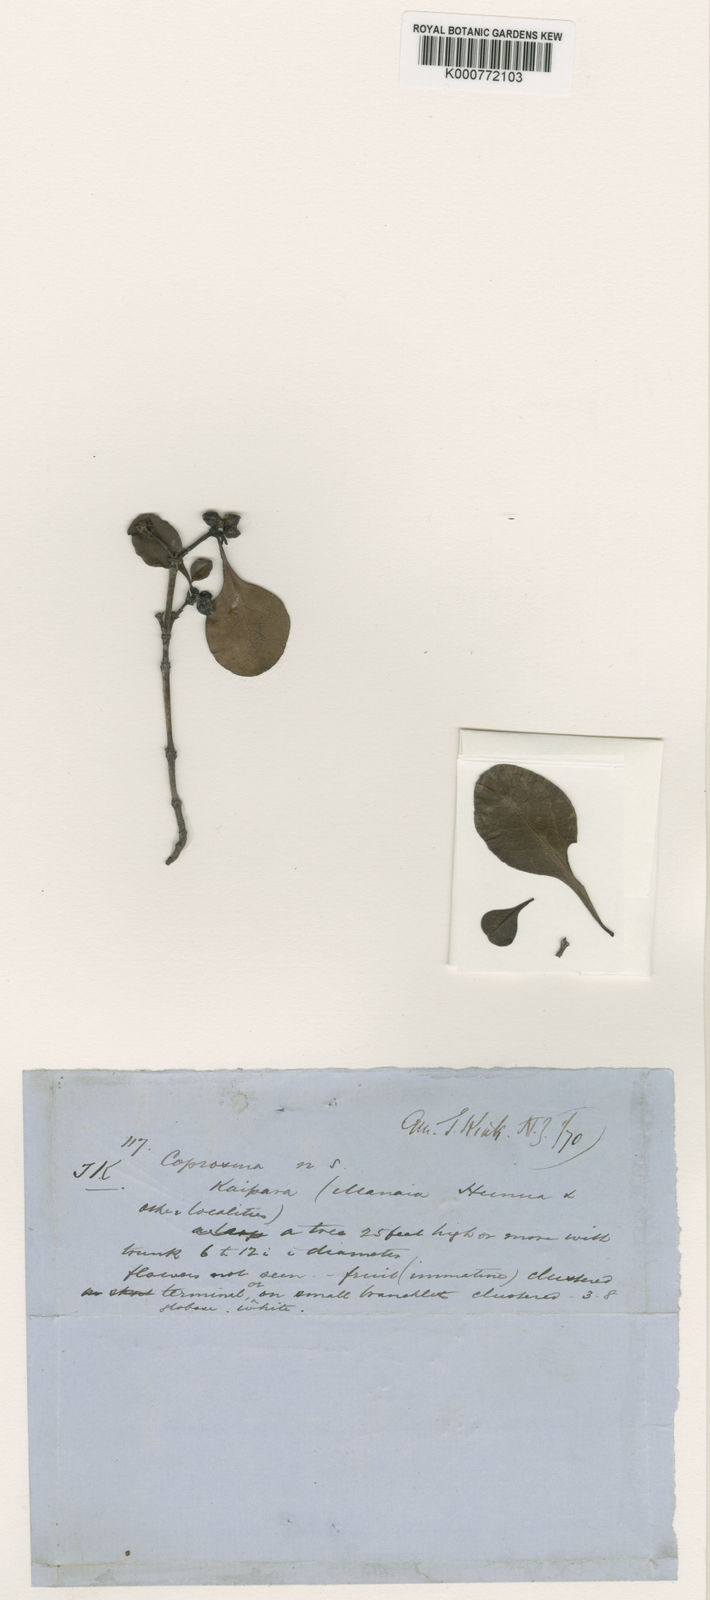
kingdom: Plantae
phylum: Tracheophyta
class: Magnoliopsida
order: Gentianales
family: Rubiaceae
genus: Coprosma
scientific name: Coprosma arborea
